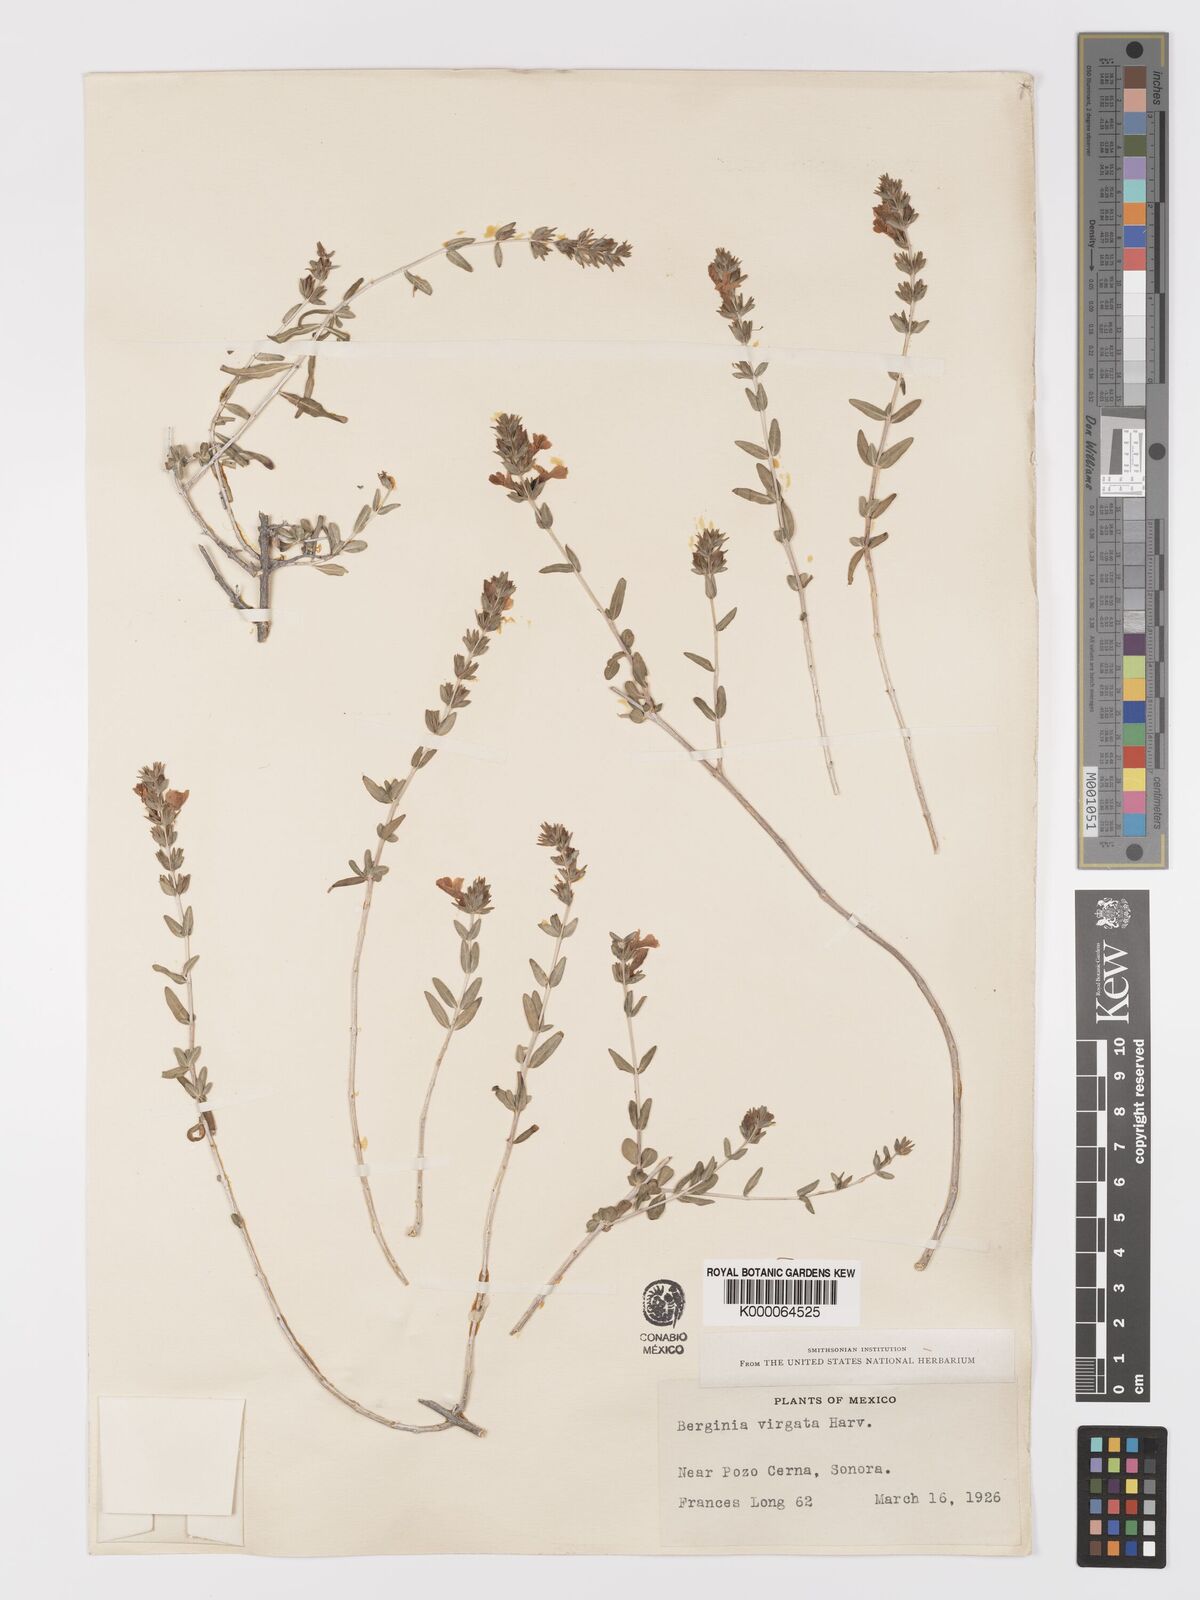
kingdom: Plantae
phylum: Tracheophyta
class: Magnoliopsida
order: Lamiales
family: Acanthaceae
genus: Holographis
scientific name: Holographis virgata
